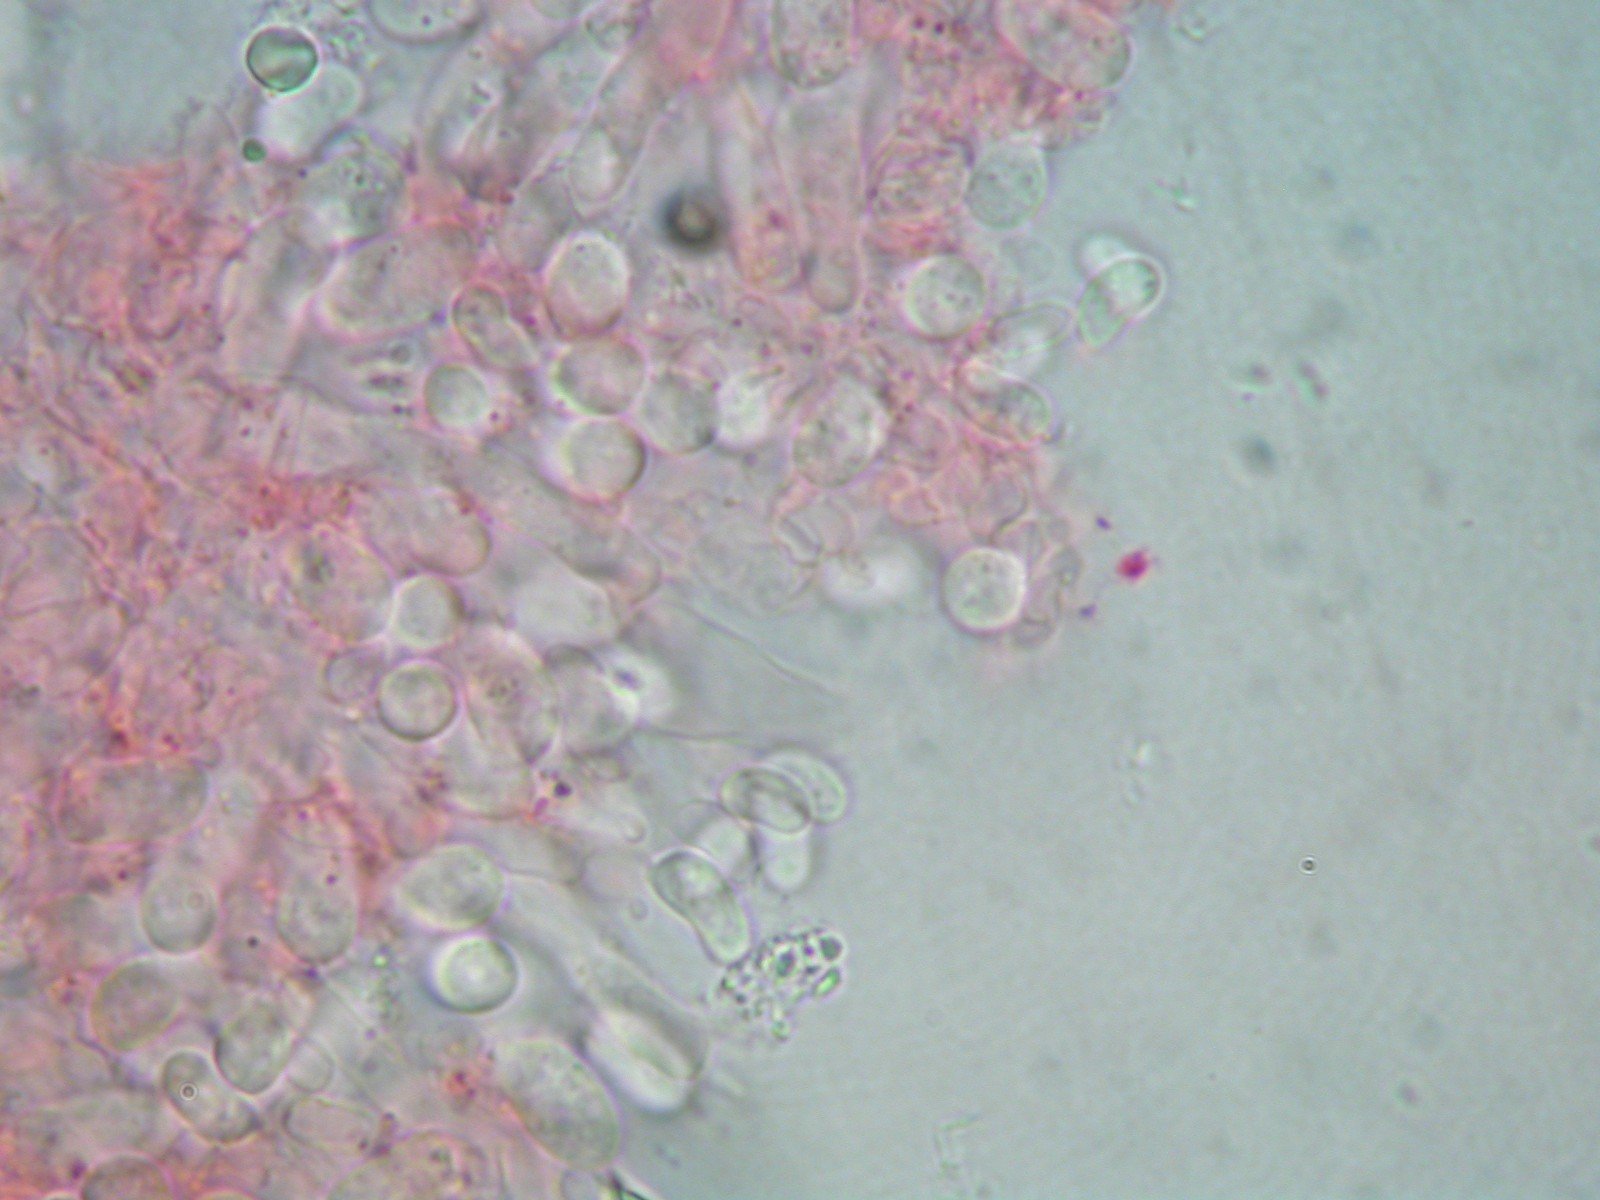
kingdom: Fungi
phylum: Basidiomycota
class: Agaricomycetes
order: Cantharellales
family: Hydnaceae
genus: Sistotrema
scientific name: Sistotrema sernanderi
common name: sur kroneskorpe
